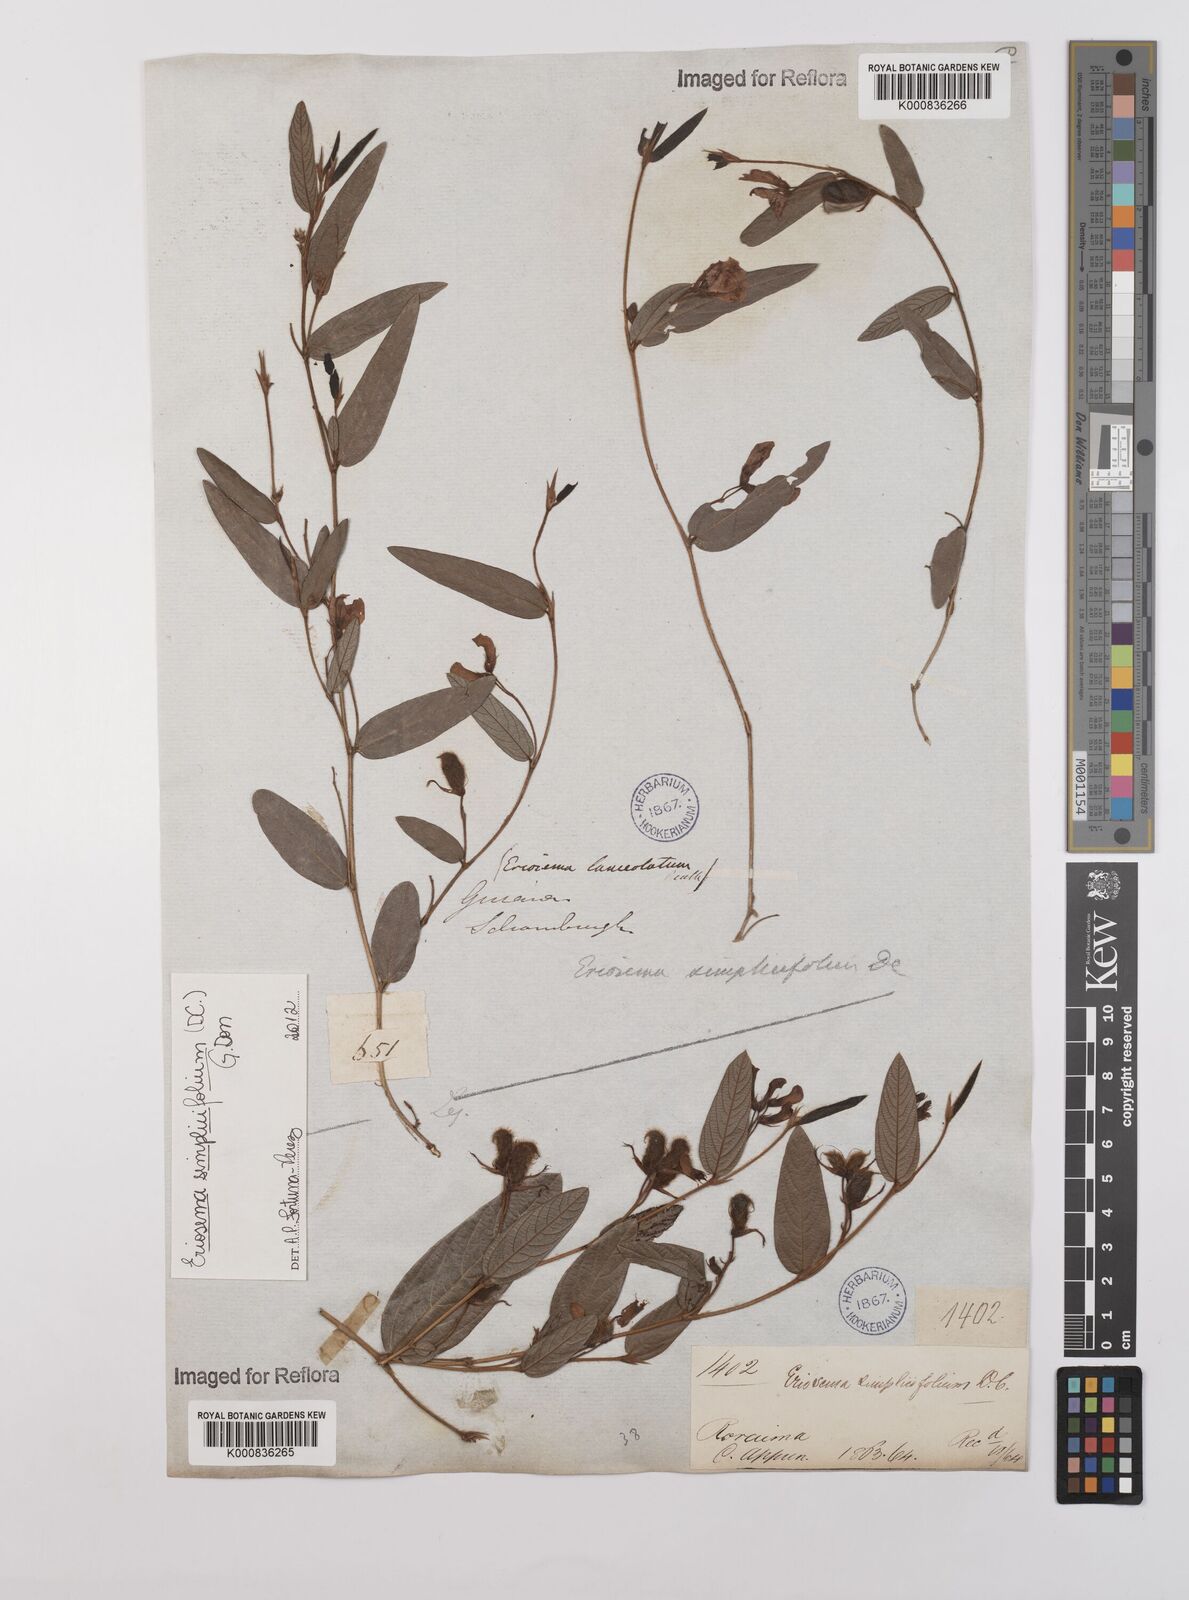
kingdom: Plantae
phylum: Tracheophyta
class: Magnoliopsida
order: Fabales
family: Fabaceae
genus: Eriosema
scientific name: Eriosema simplicifolium
